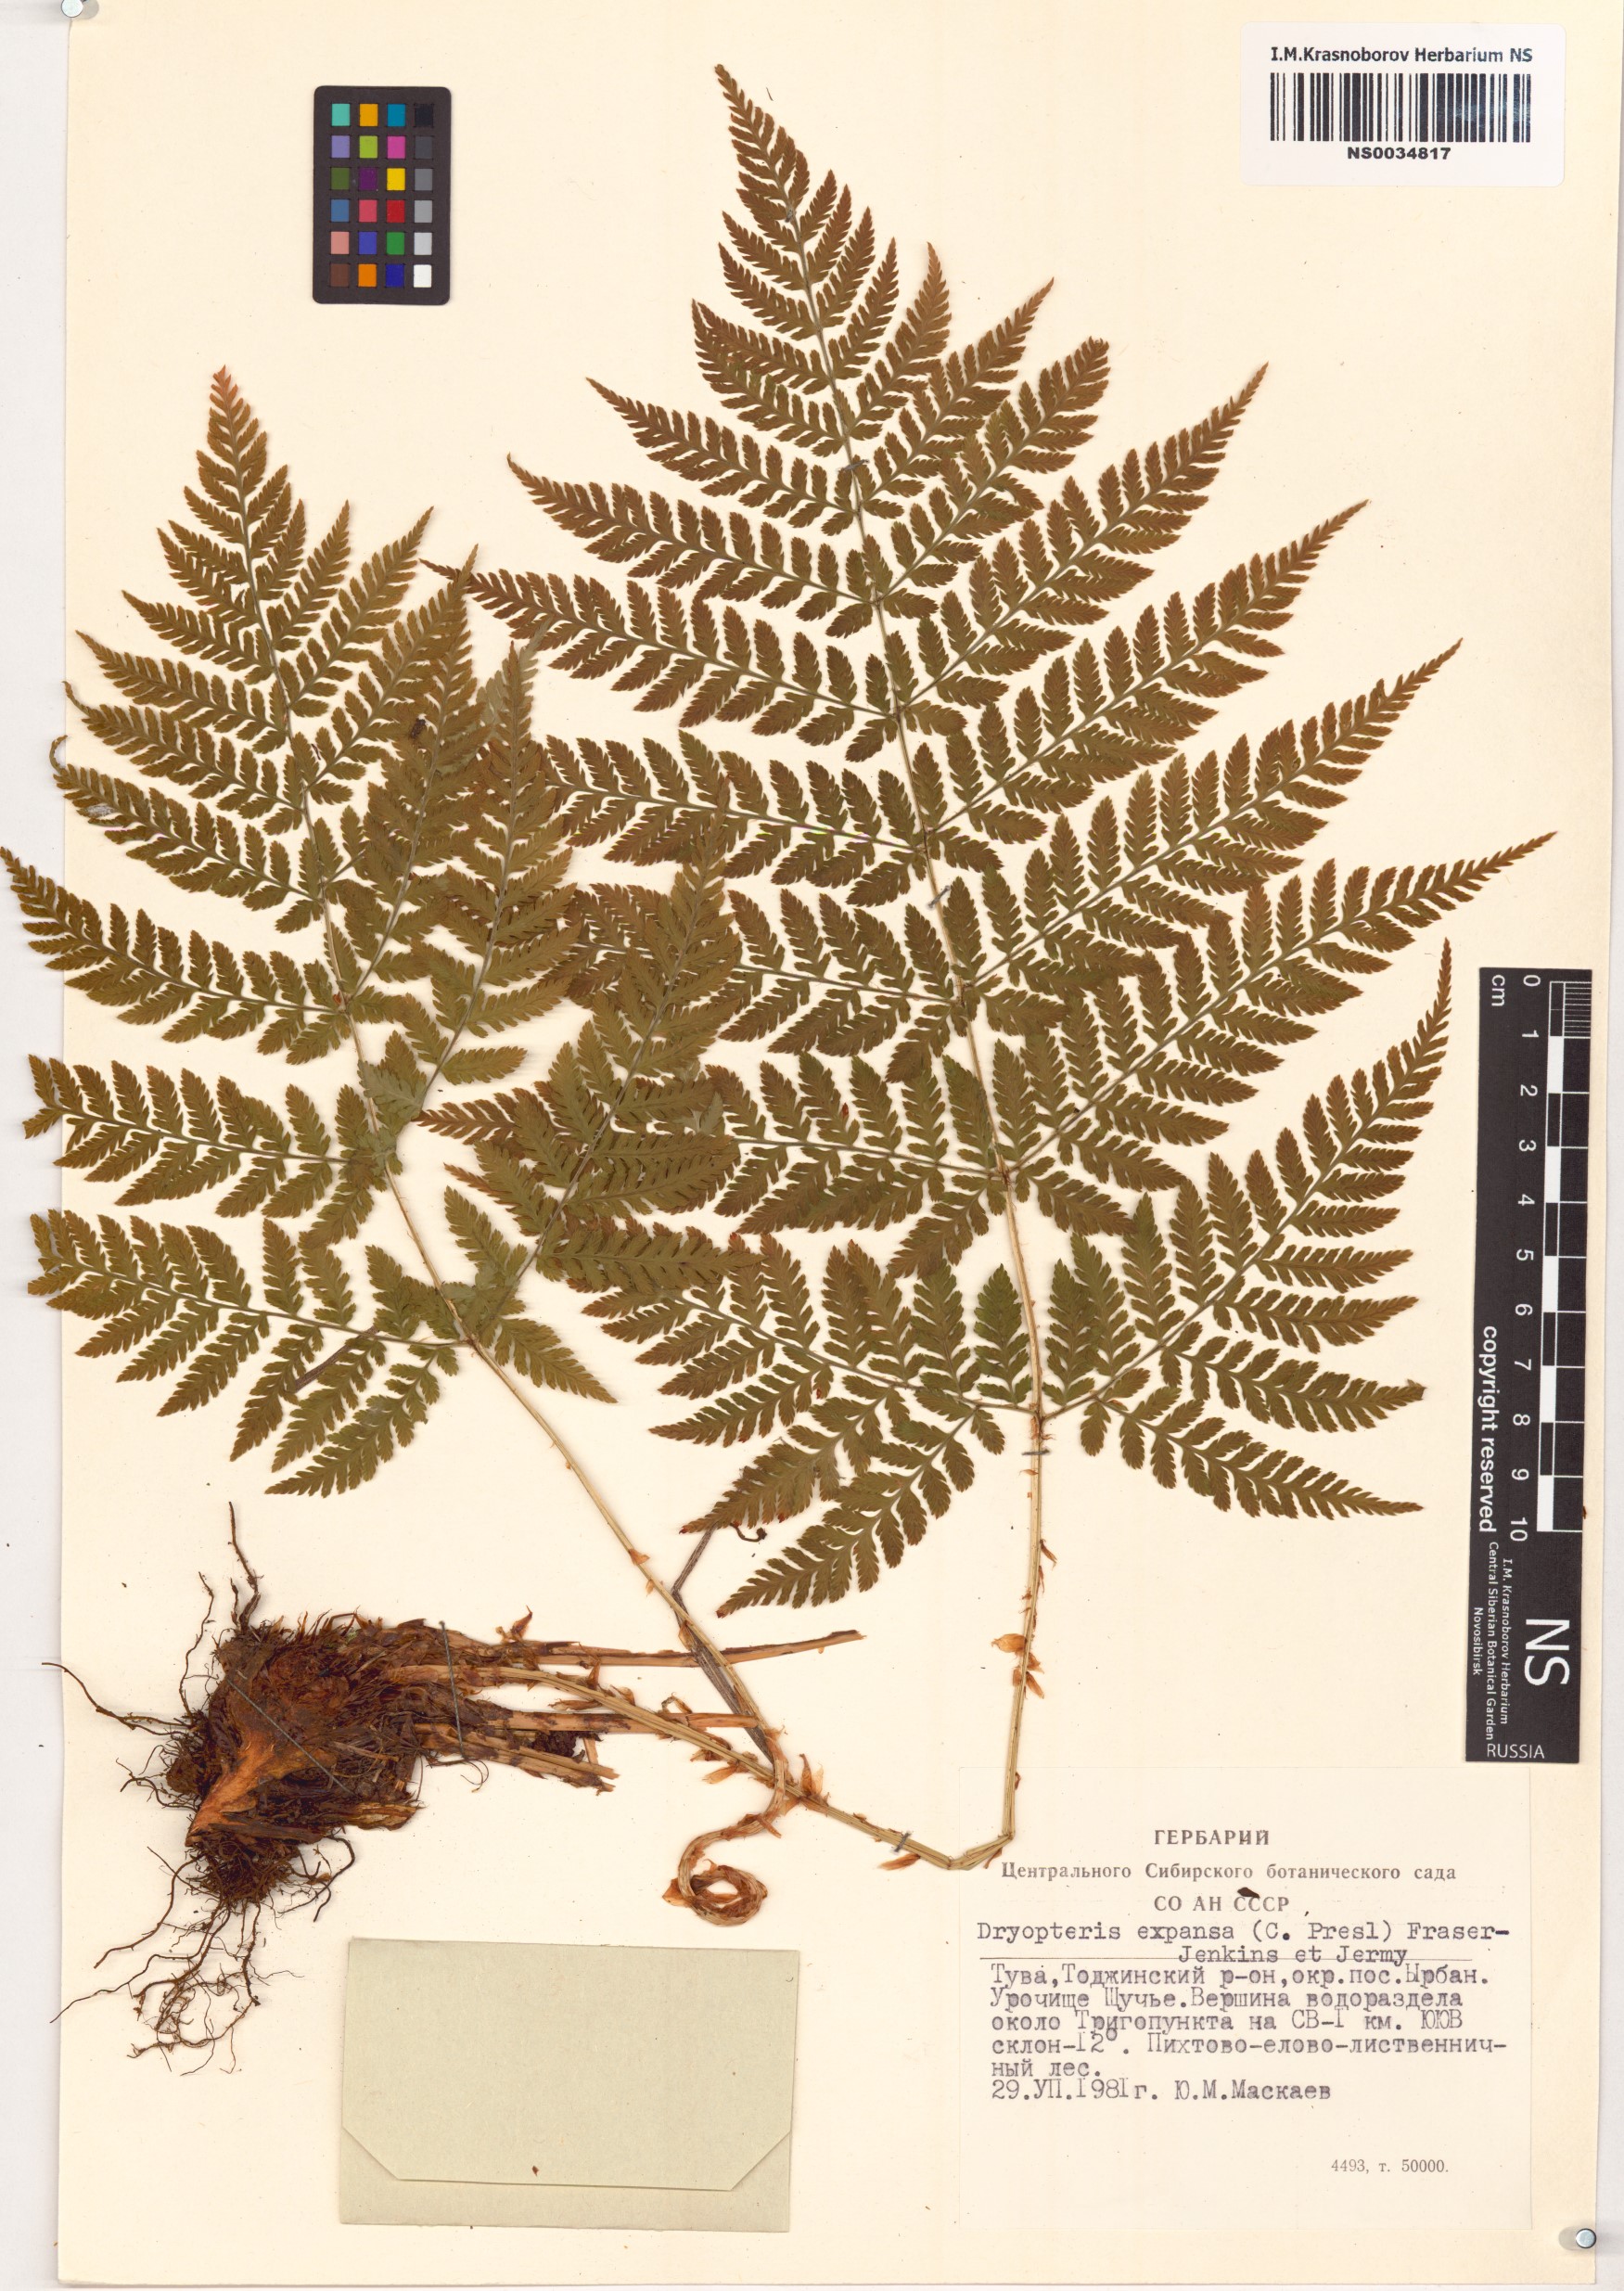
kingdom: Plantae
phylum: Tracheophyta
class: Polypodiopsida
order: Polypodiales
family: Dryopteridaceae
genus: Dryopteris
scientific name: Dryopteris expansa
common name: Northern buckler fern
